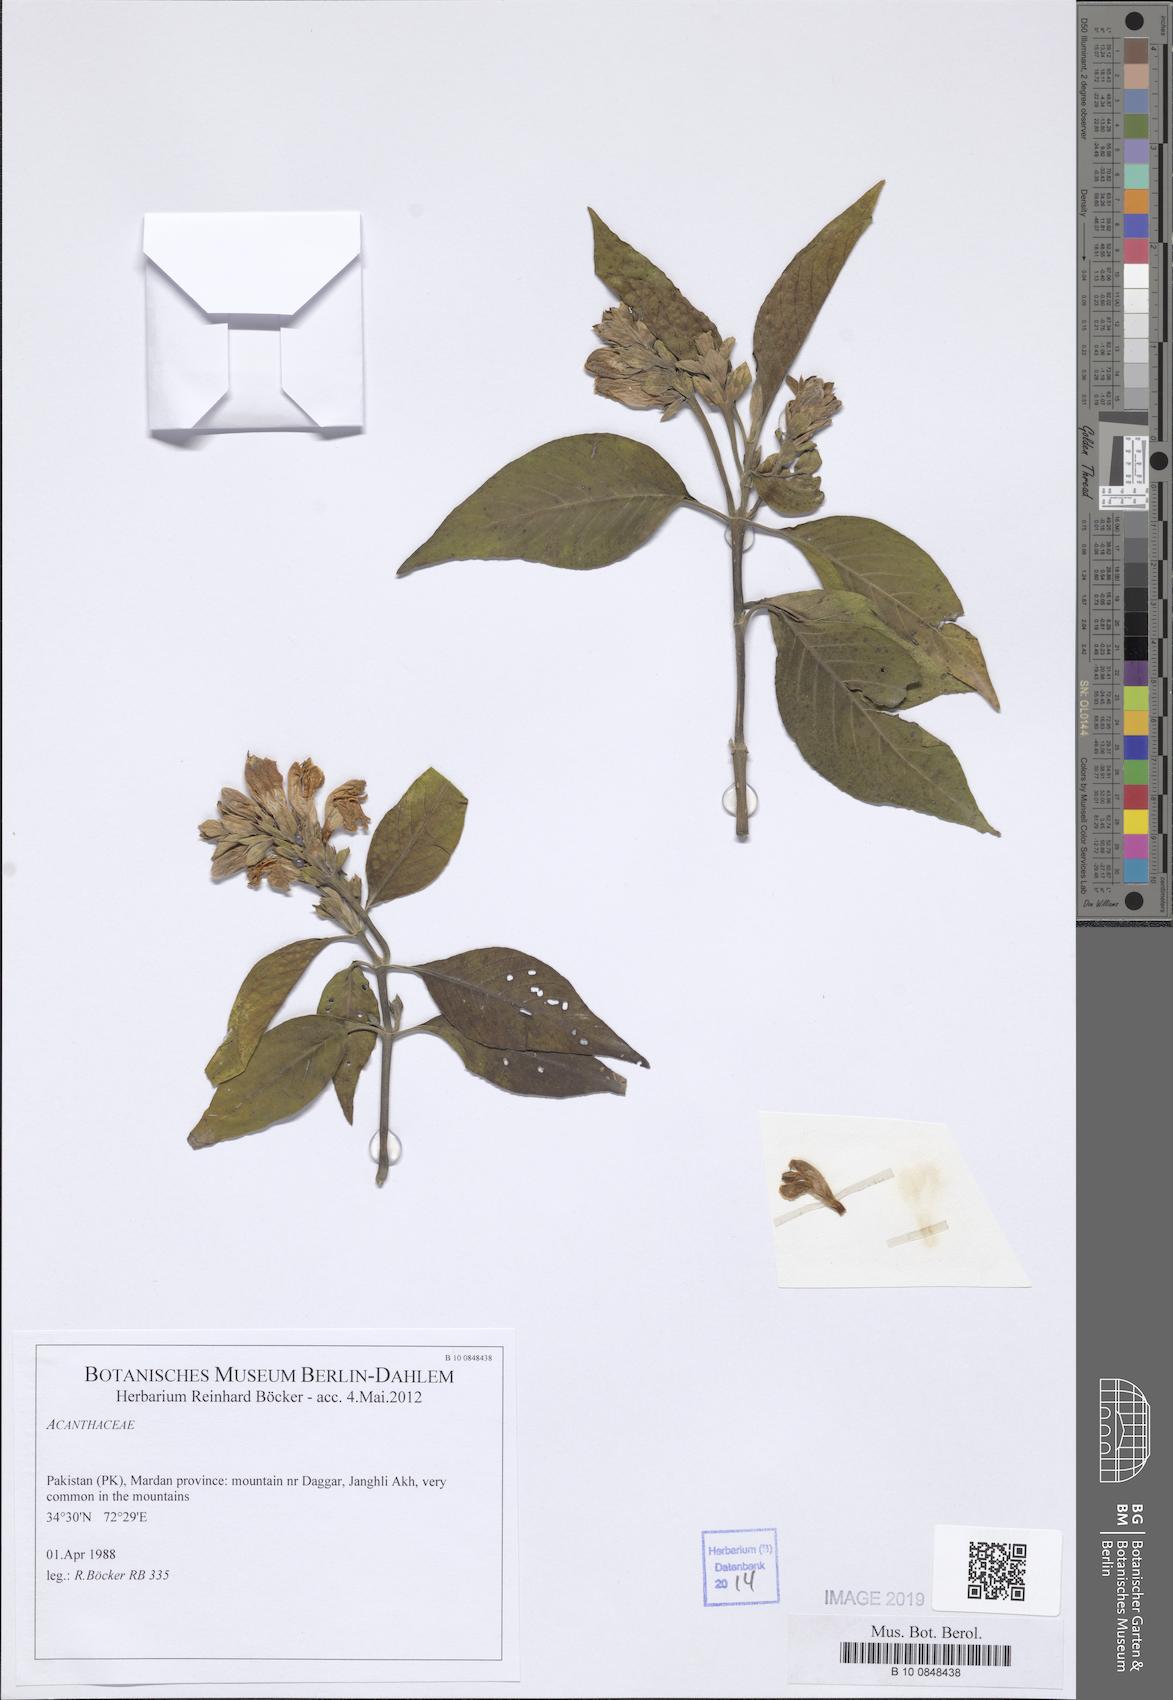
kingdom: Plantae
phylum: Tracheophyta
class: Magnoliopsida
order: Lamiales
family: Acanthaceae
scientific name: Acanthaceae
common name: Acanthaceae
